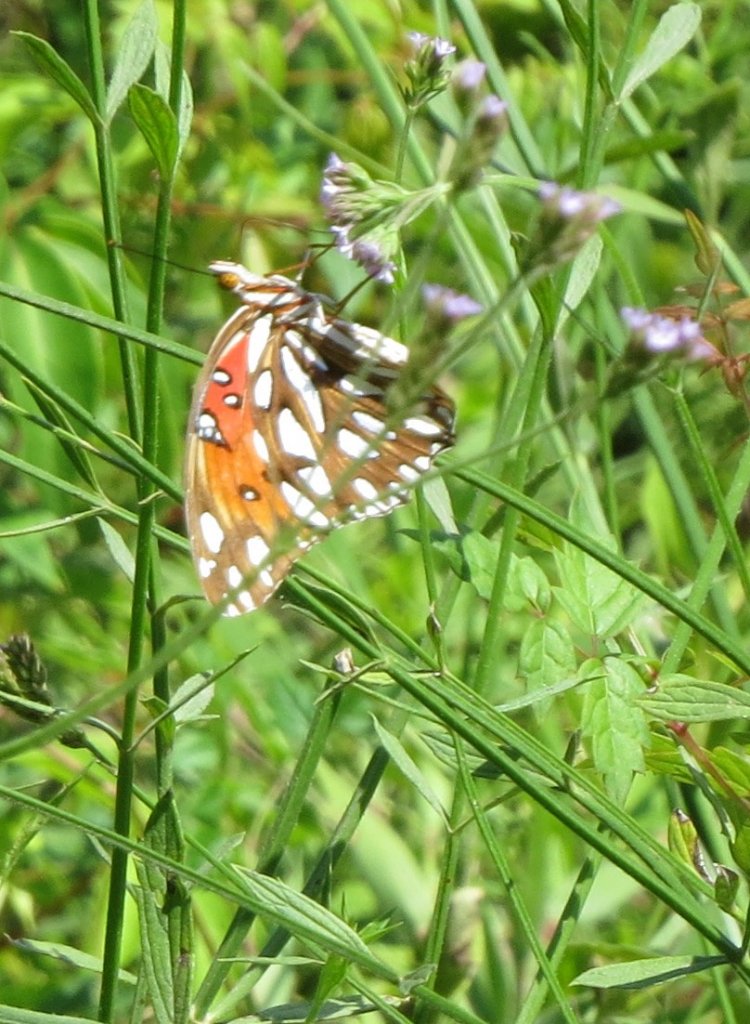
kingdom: Animalia
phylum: Arthropoda
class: Insecta
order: Lepidoptera
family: Nymphalidae
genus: Dione
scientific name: Dione vanillae
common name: Gulf Fritillary
